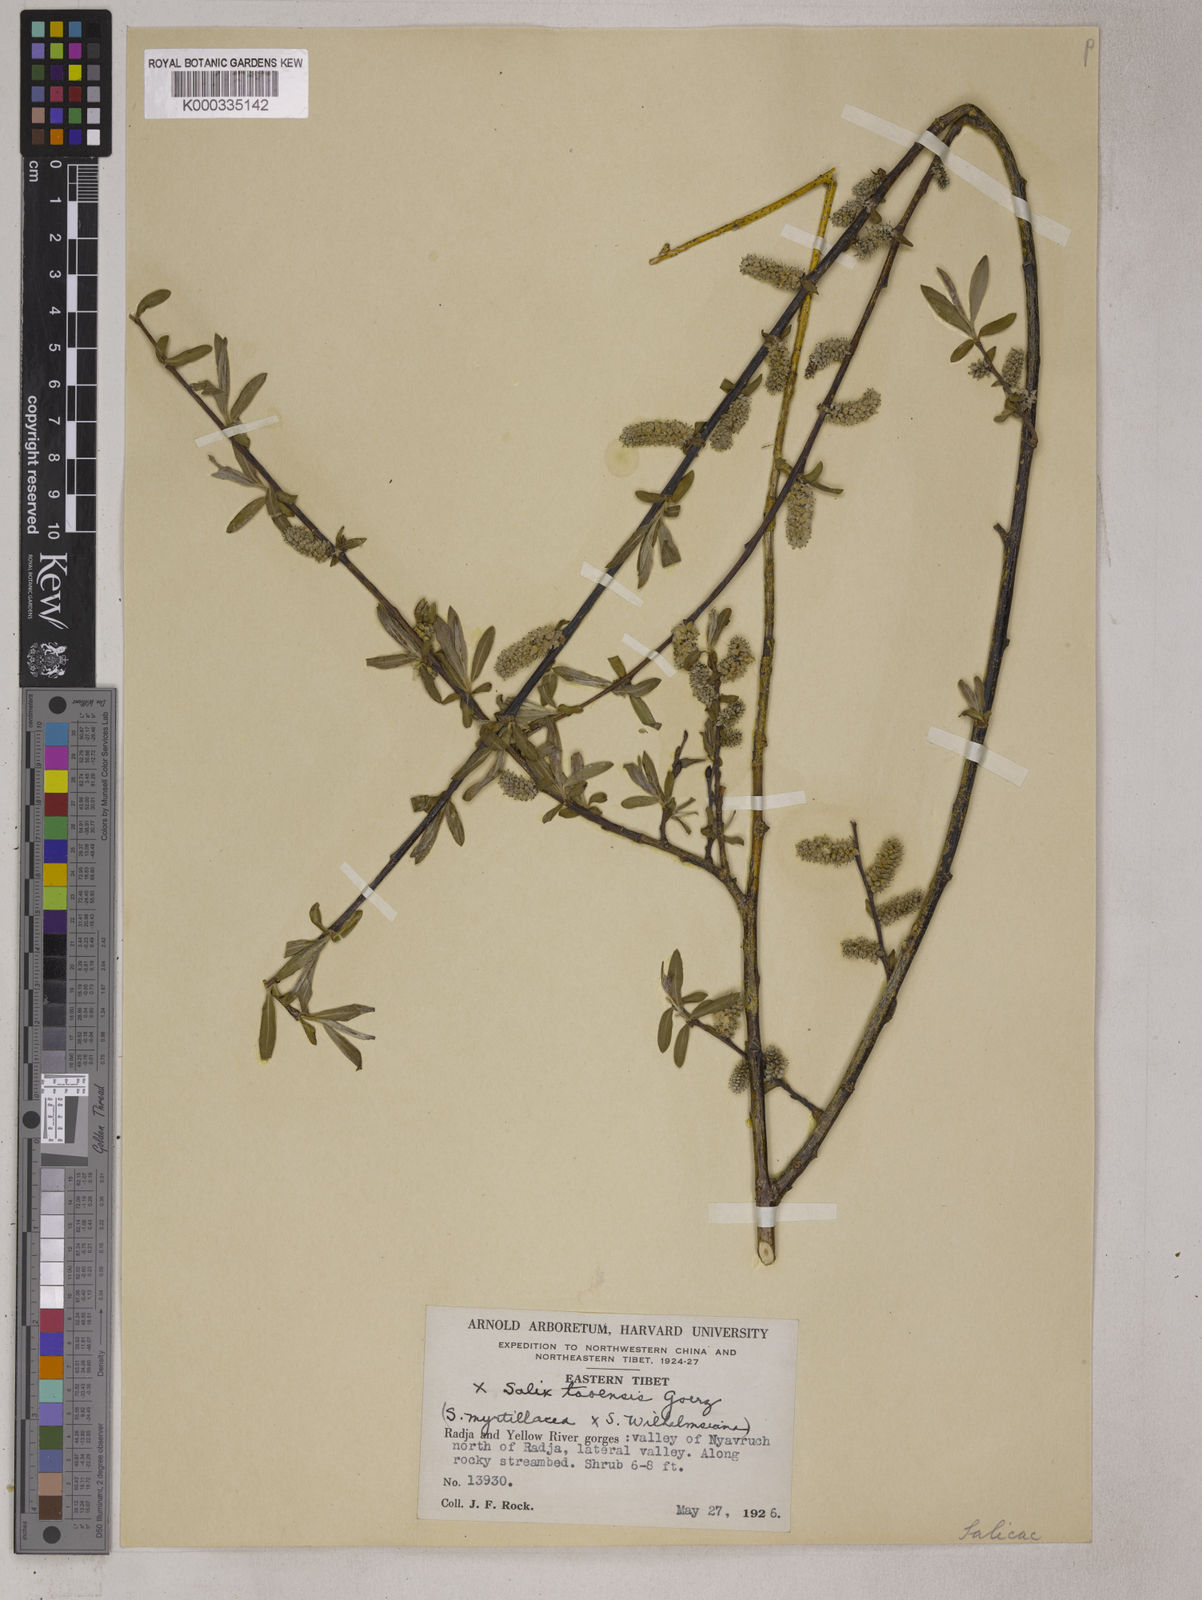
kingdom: Plantae
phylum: Tracheophyta
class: Magnoliopsida
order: Malpighiales
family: Salicaceae
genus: Salix
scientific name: Salix
